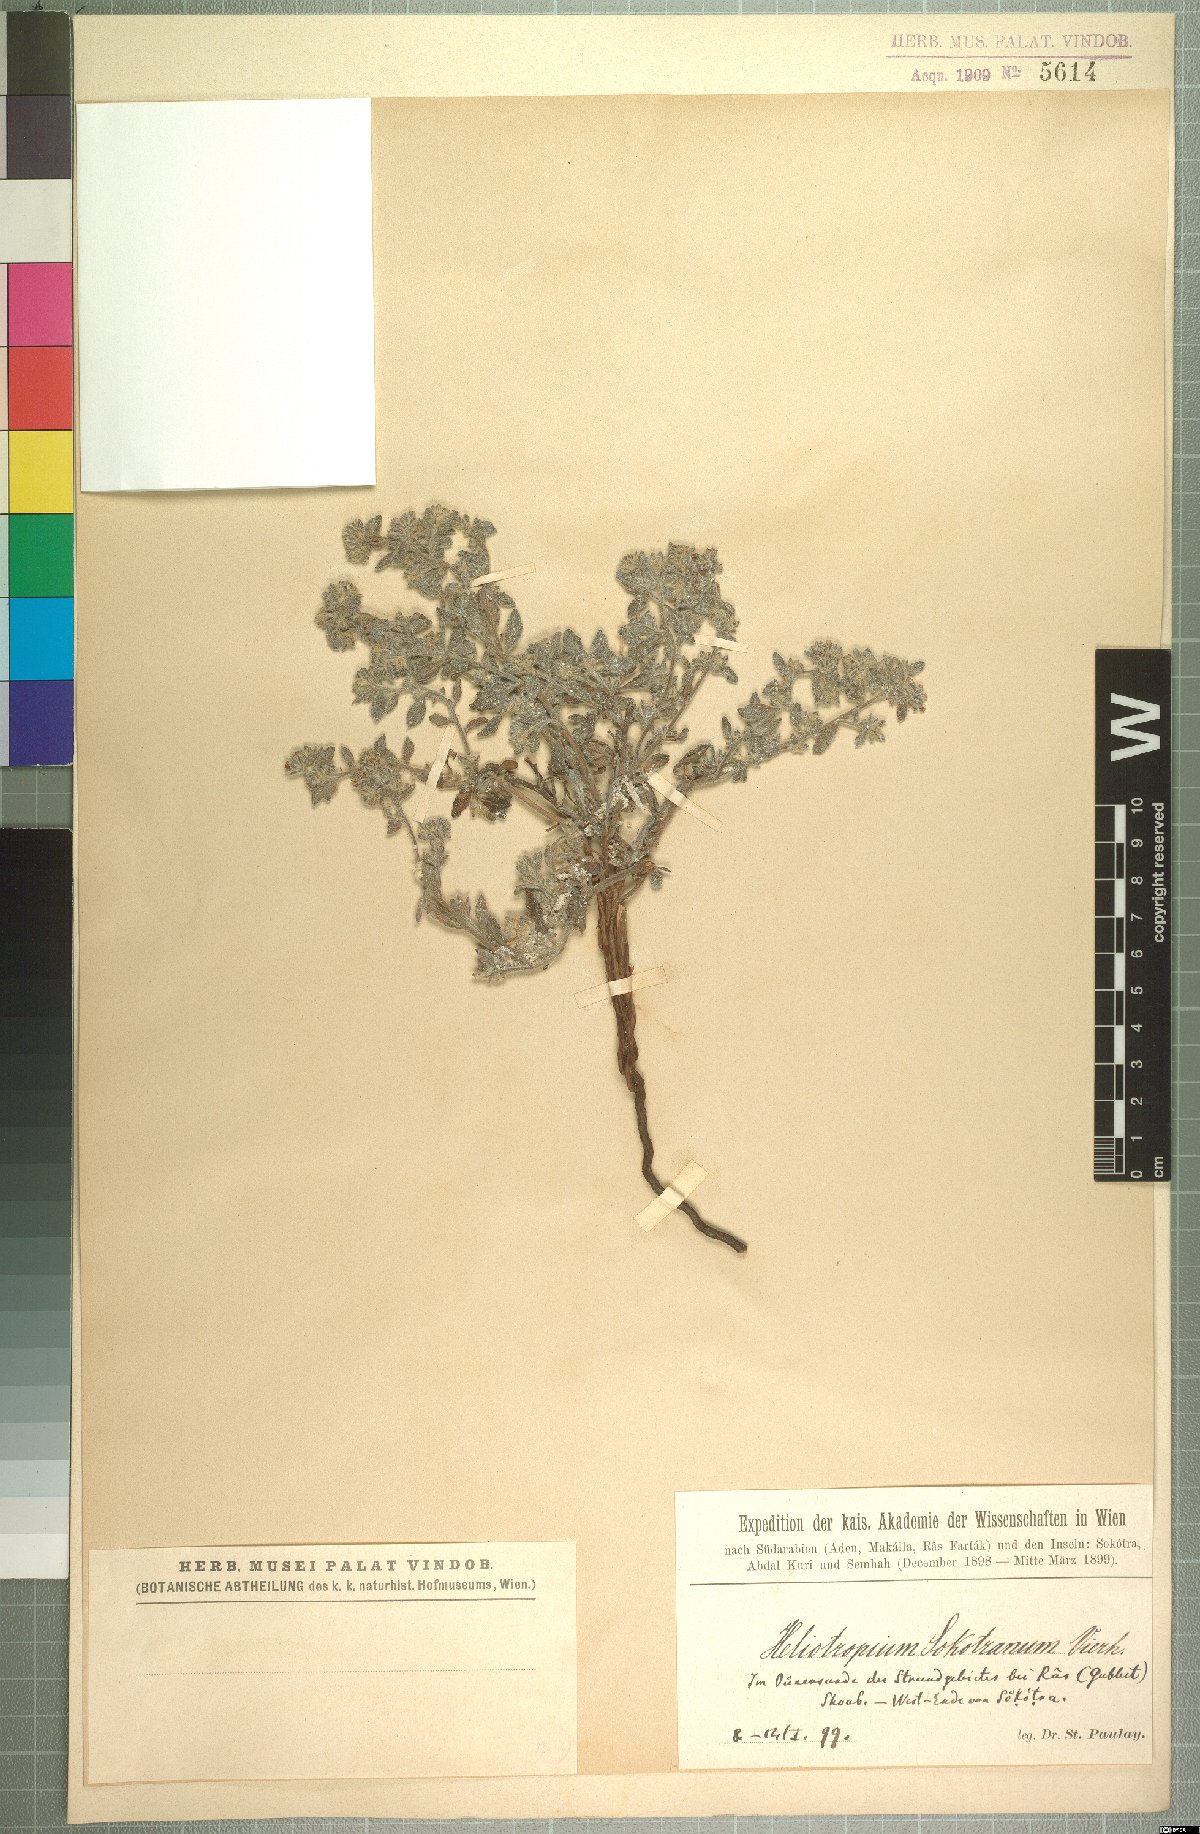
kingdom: Plantae
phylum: Tracheophyta
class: Magnoliopsida
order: Boraginales
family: Heliotropiaceae
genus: Heliotropium
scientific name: Heliotropium sokotranum
